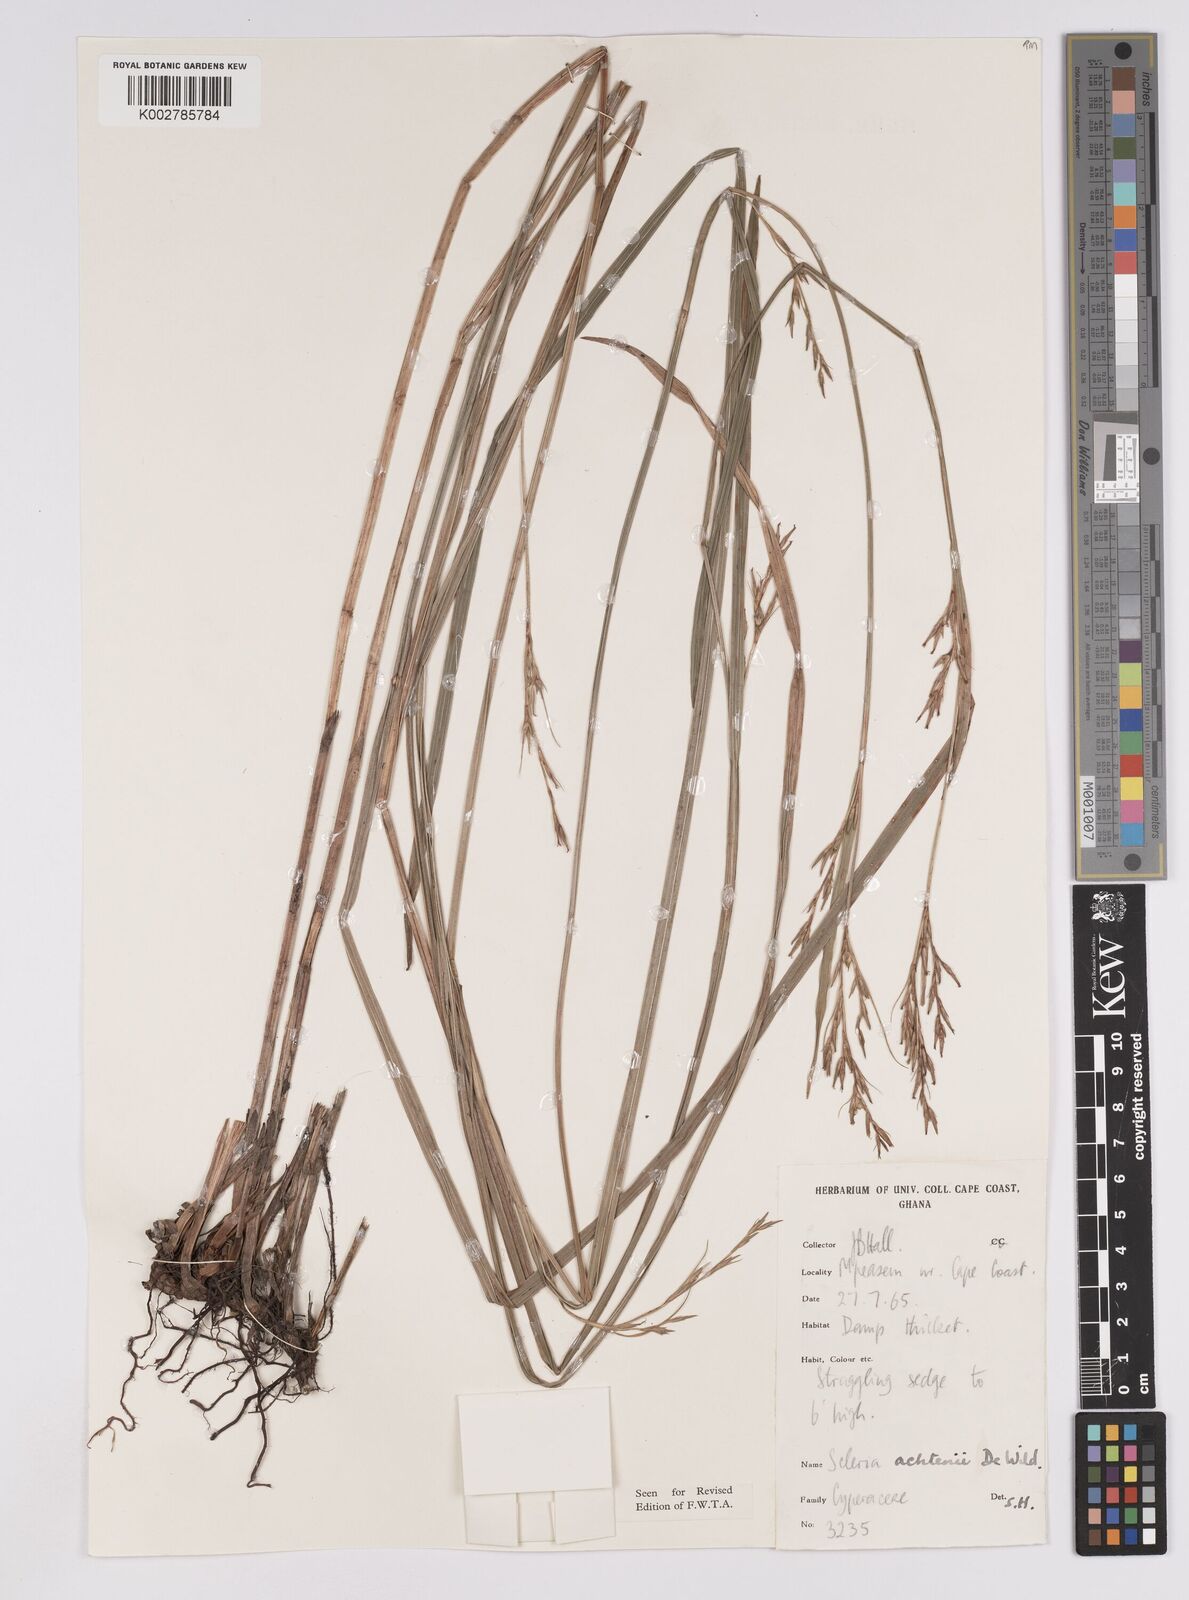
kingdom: Plantae
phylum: Tracheophyta
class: Liliopsida
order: Poales
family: Cyperaceae
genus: Scleria
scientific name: Scleria achtenii
